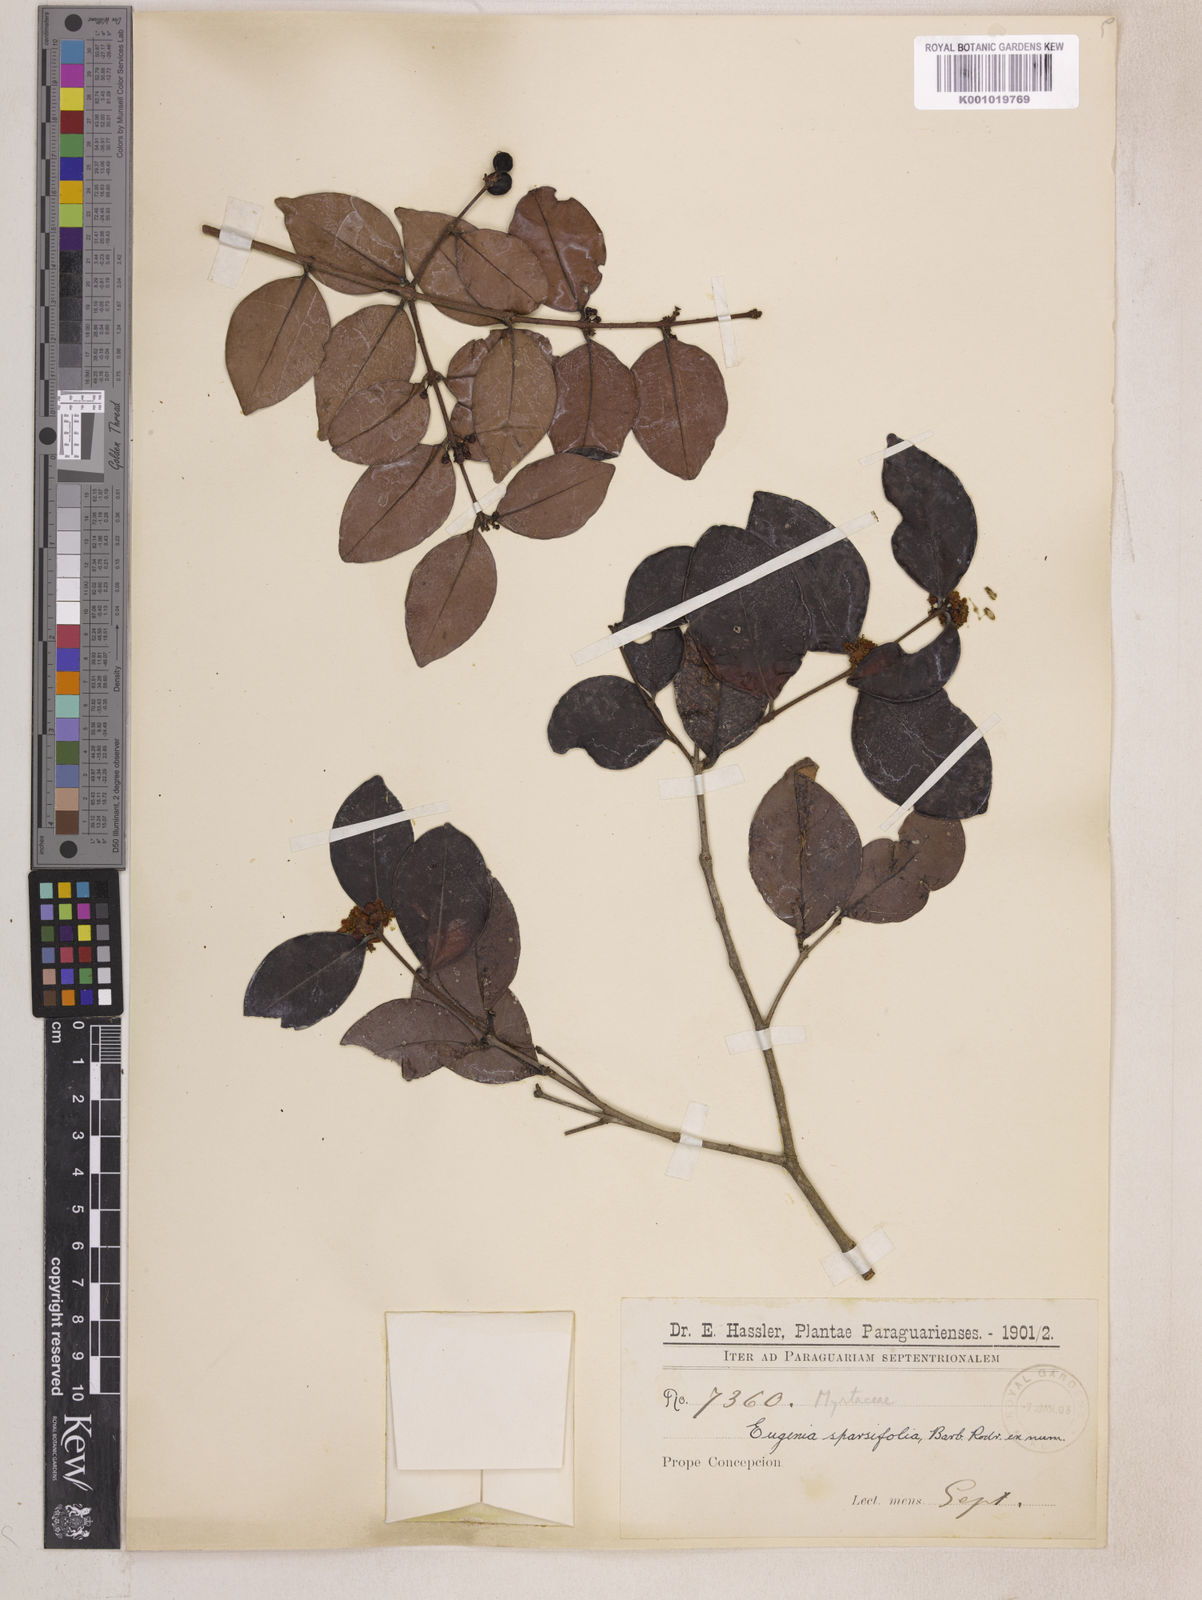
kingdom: Plantae
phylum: Tracheophyta
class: Magnoliopsida
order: Myrtales
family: Myrtaceae
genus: Eugenia
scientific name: Eugenia
